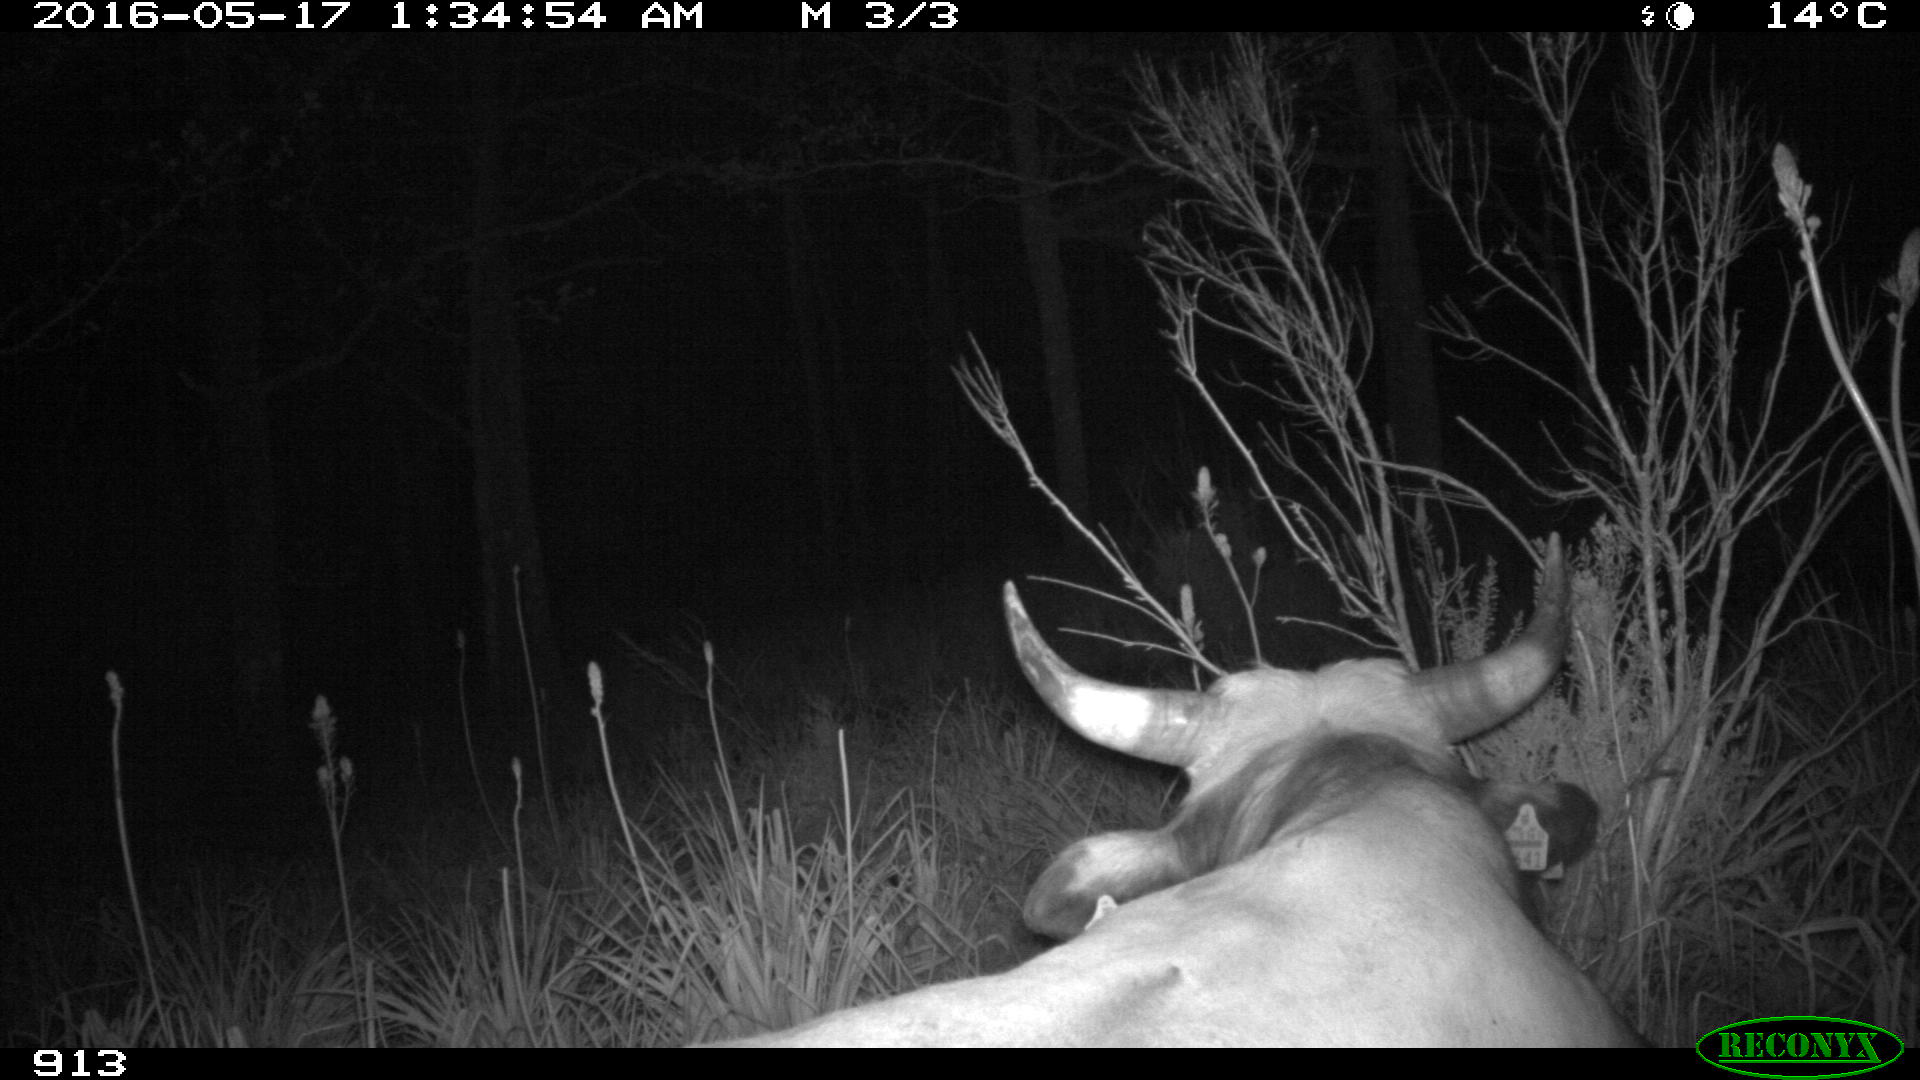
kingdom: Animalia
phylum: Chordata
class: Mammalia
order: Artiodactyla
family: Bovidae
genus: Bos
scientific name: Bos taurus
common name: Domesticated cattle
